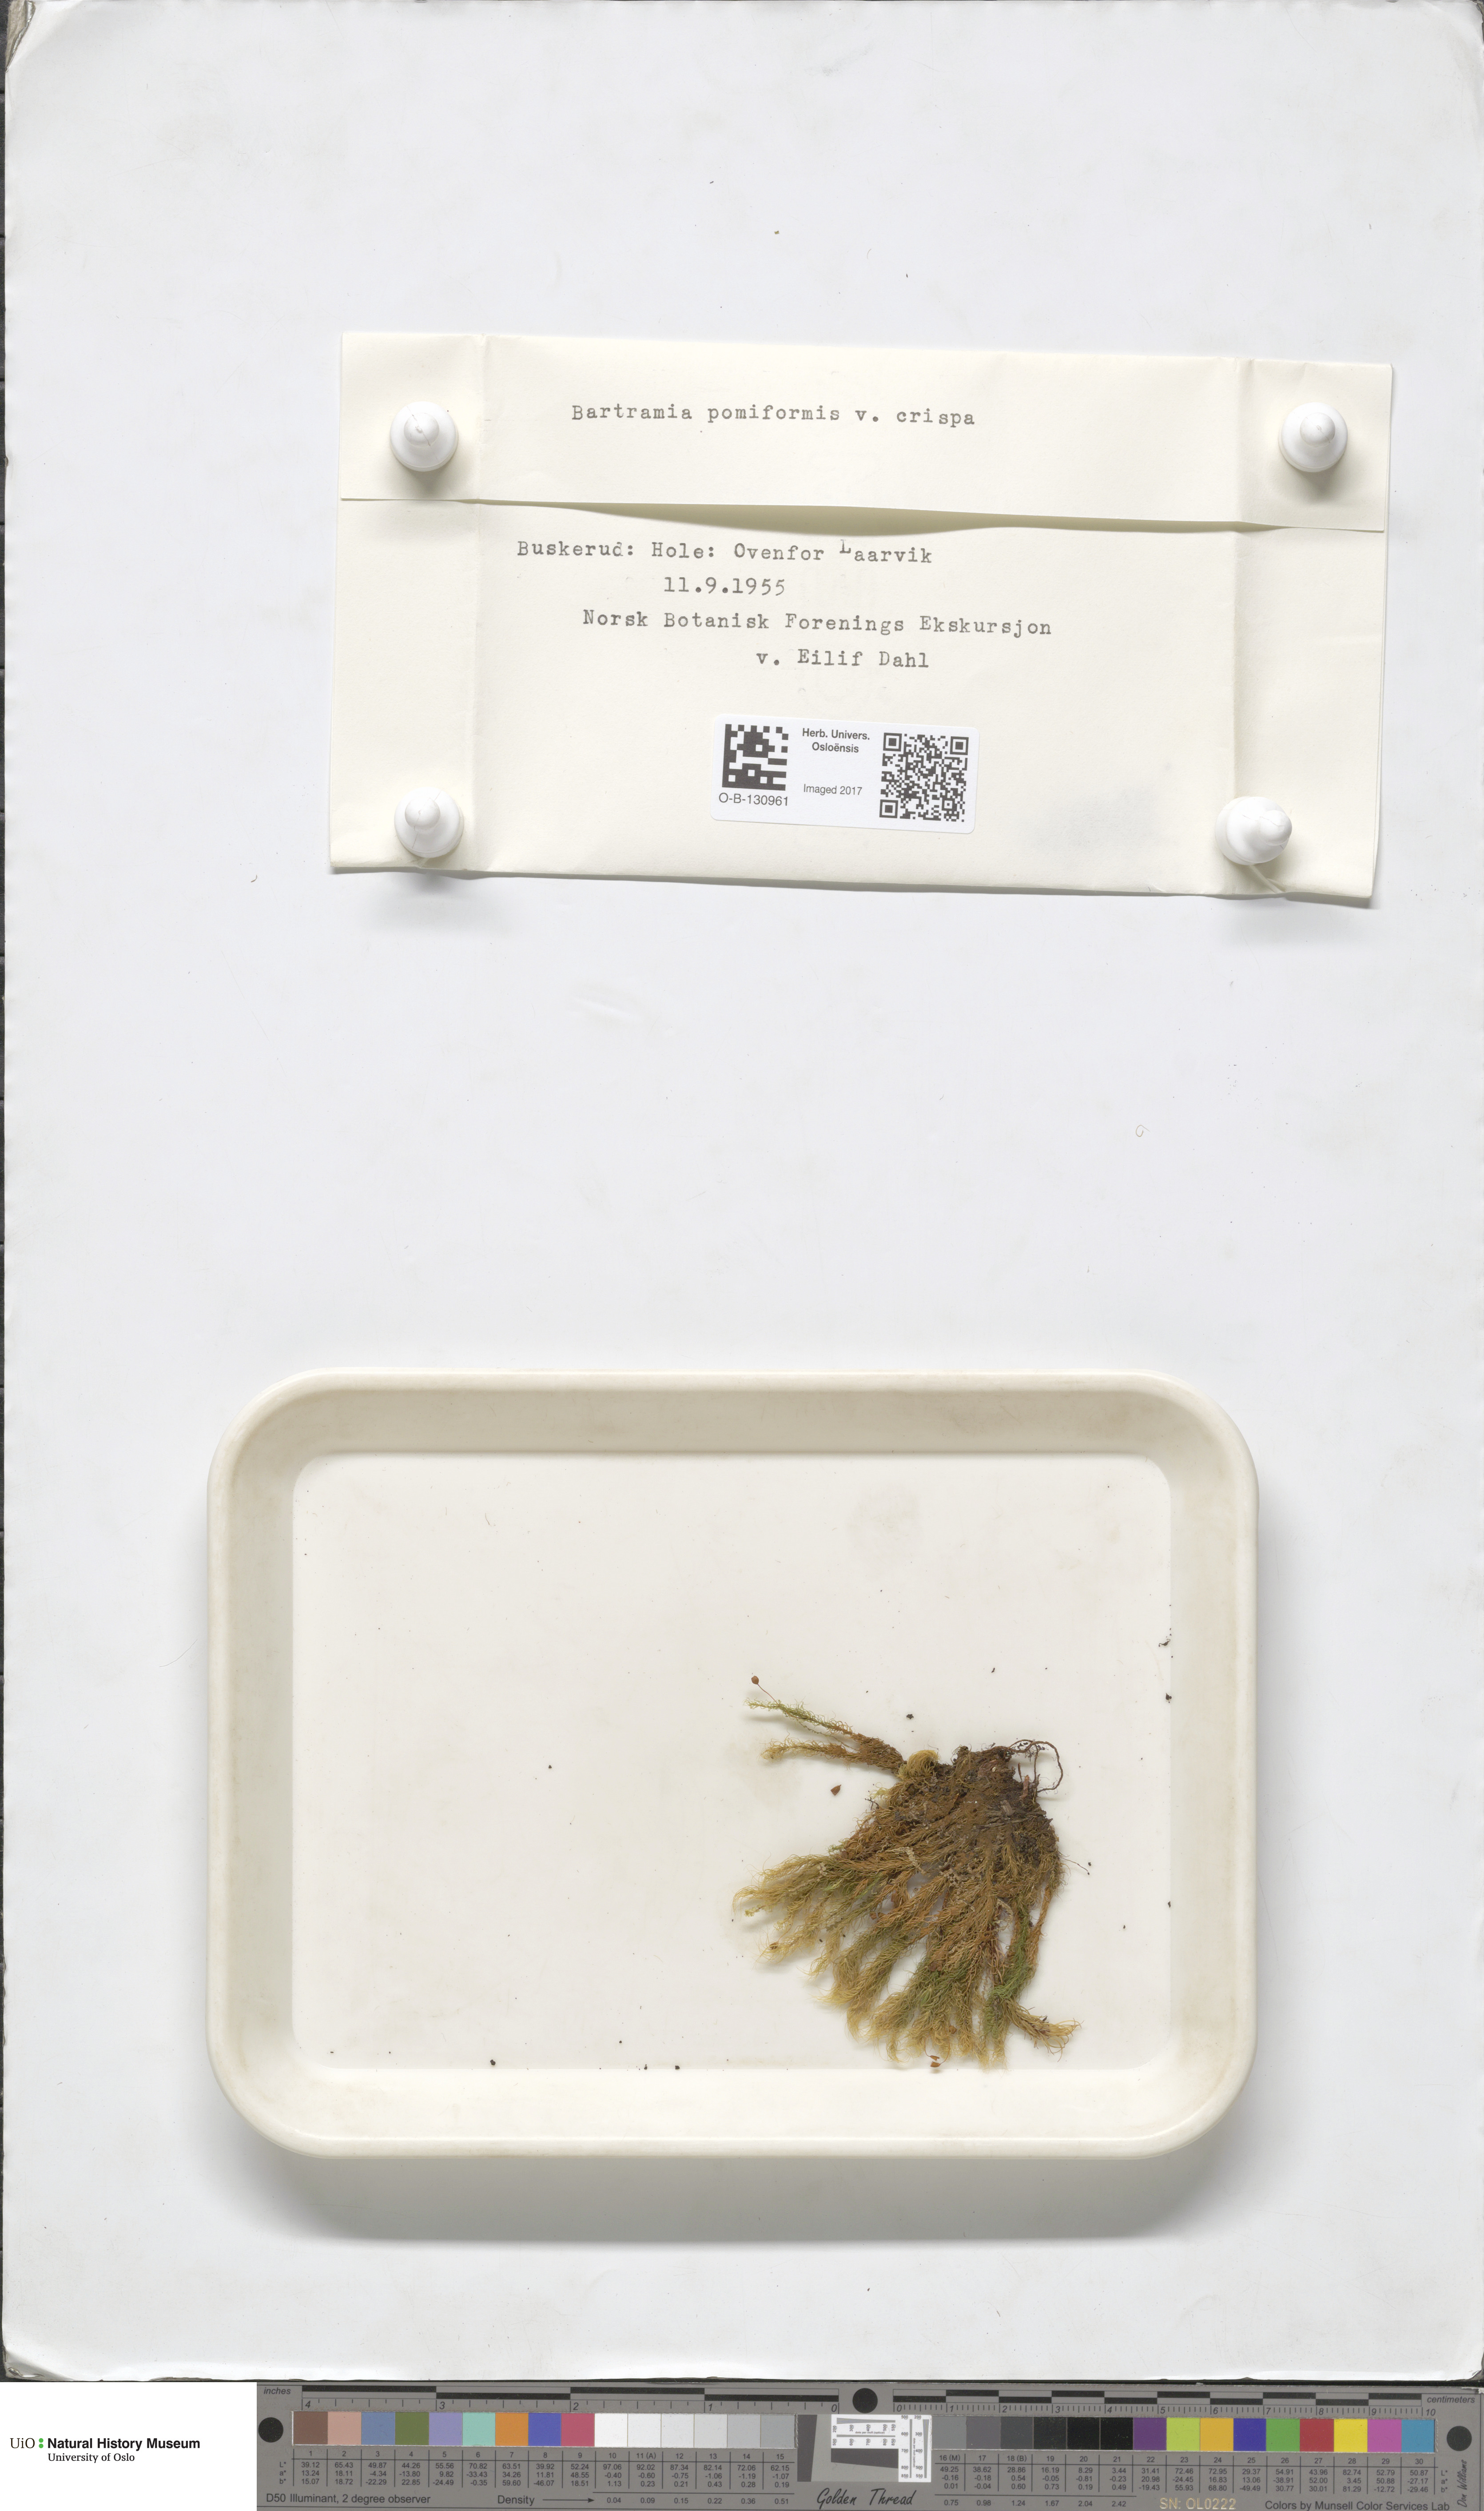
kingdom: Plantae
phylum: Bryophyta
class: Bryopsida
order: Bartramiales
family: Bartramiaceae
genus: Bartramia
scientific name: Bartramia pomiformis
